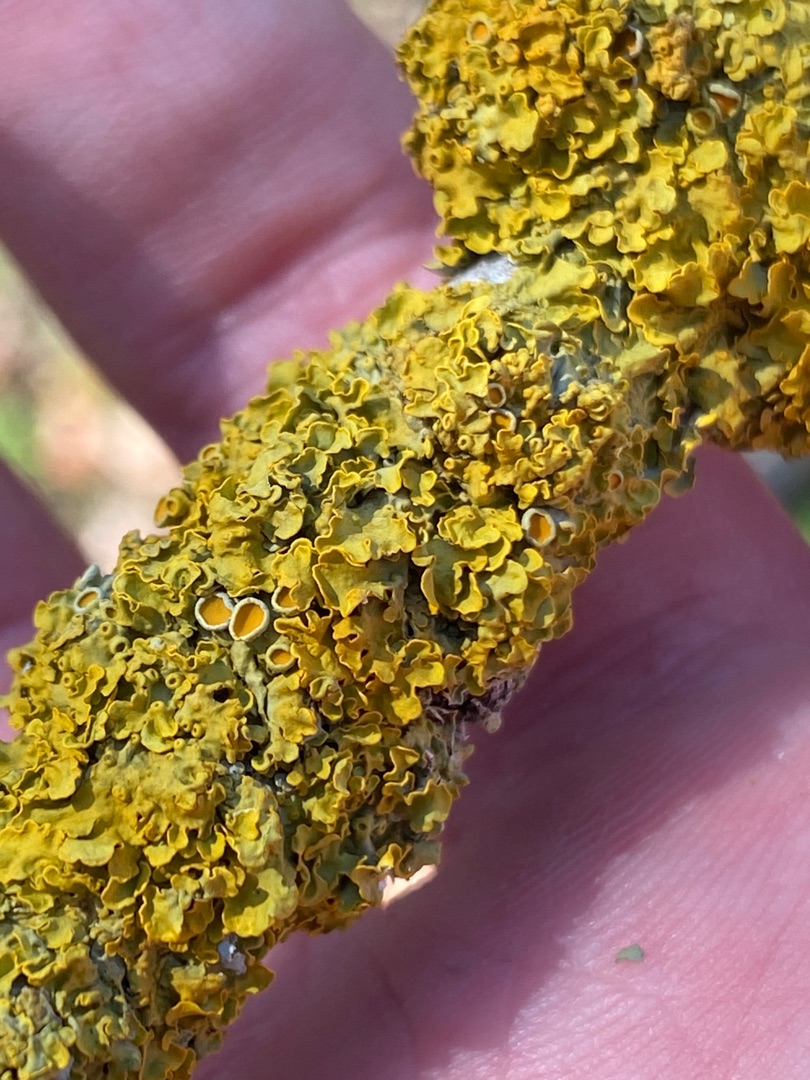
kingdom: Fungi
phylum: Ascomycota
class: Lecanoromycetes
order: Teloschistales
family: Teloschistaceae
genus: Xanthoria
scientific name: Xanthoria parietina
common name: Almindelig væggelav
